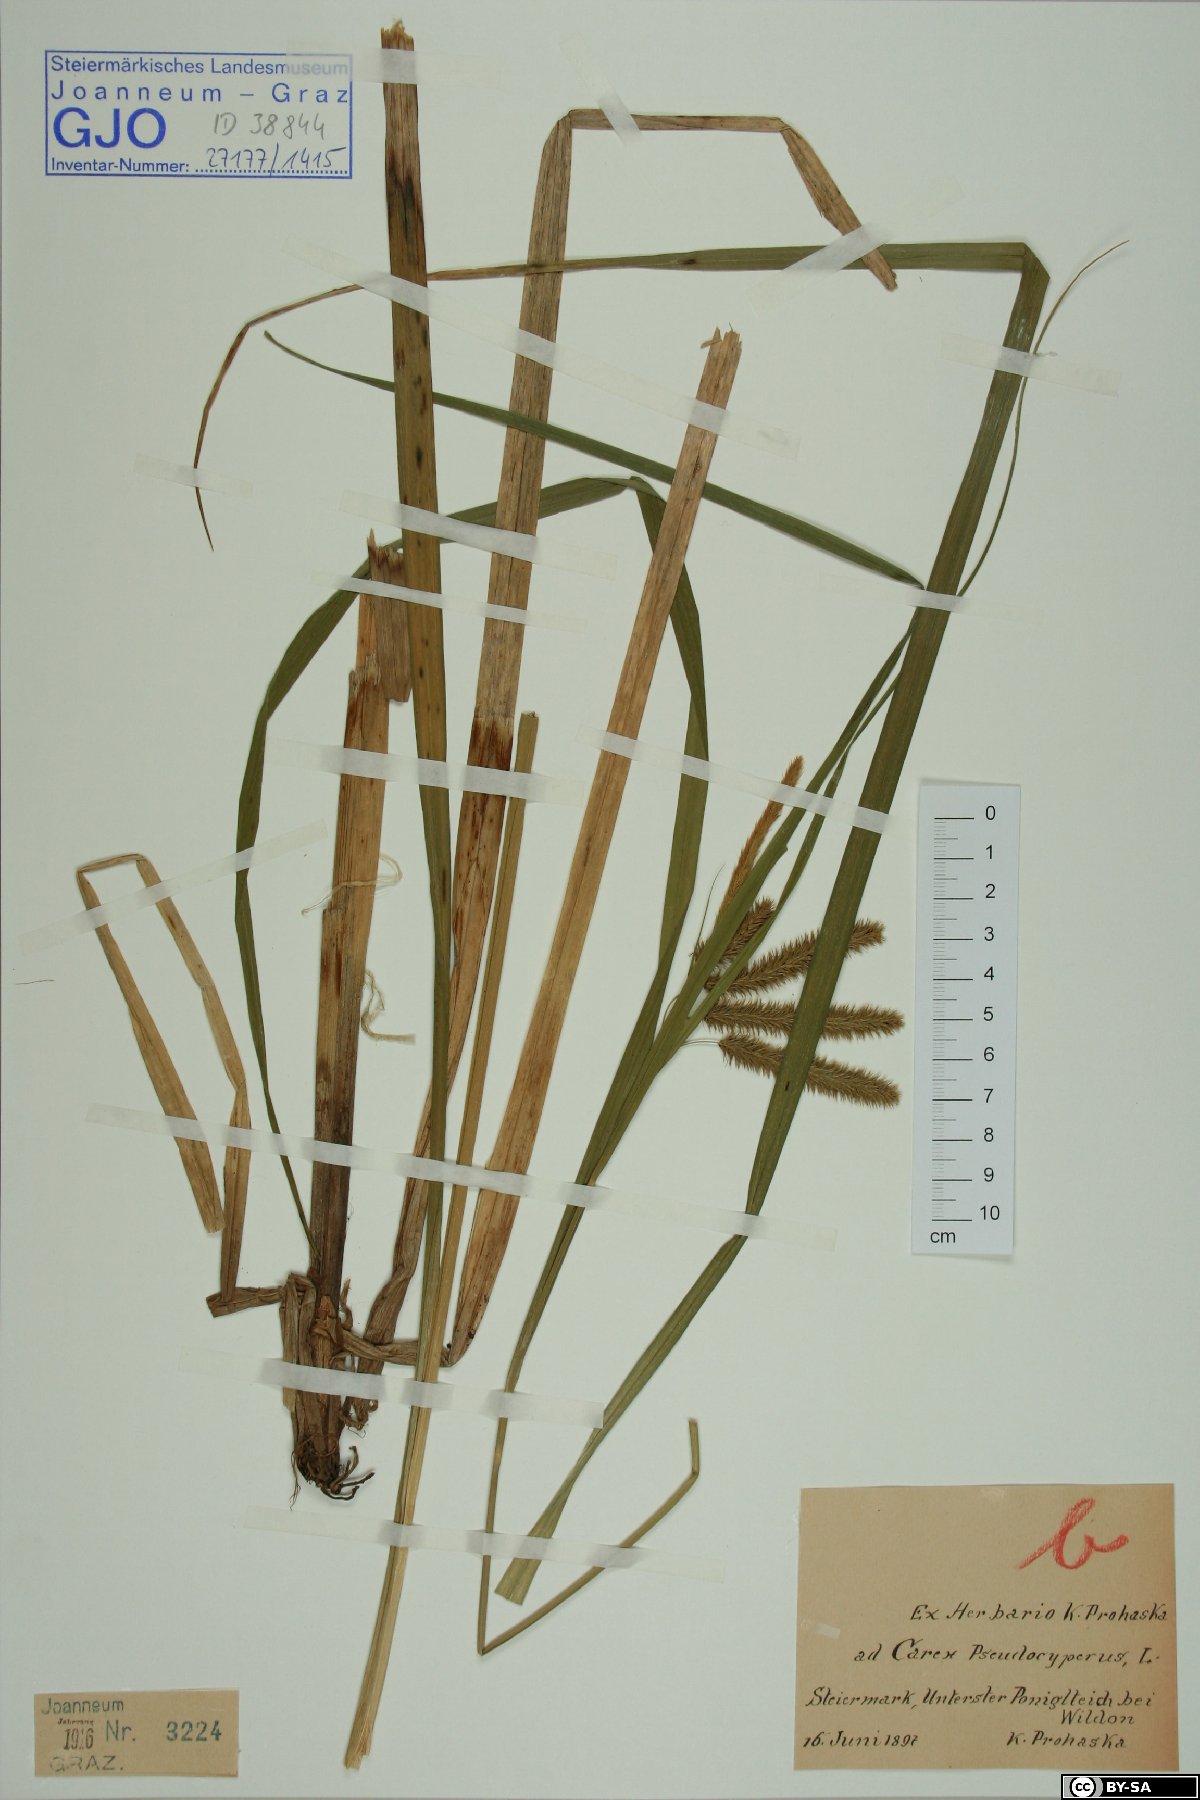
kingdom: Plantae
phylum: Tracheophyta
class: Liliopsida
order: Poales
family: Cyperaceae
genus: Carex
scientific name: Carex pseudocyperus
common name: Cyperus sedge
